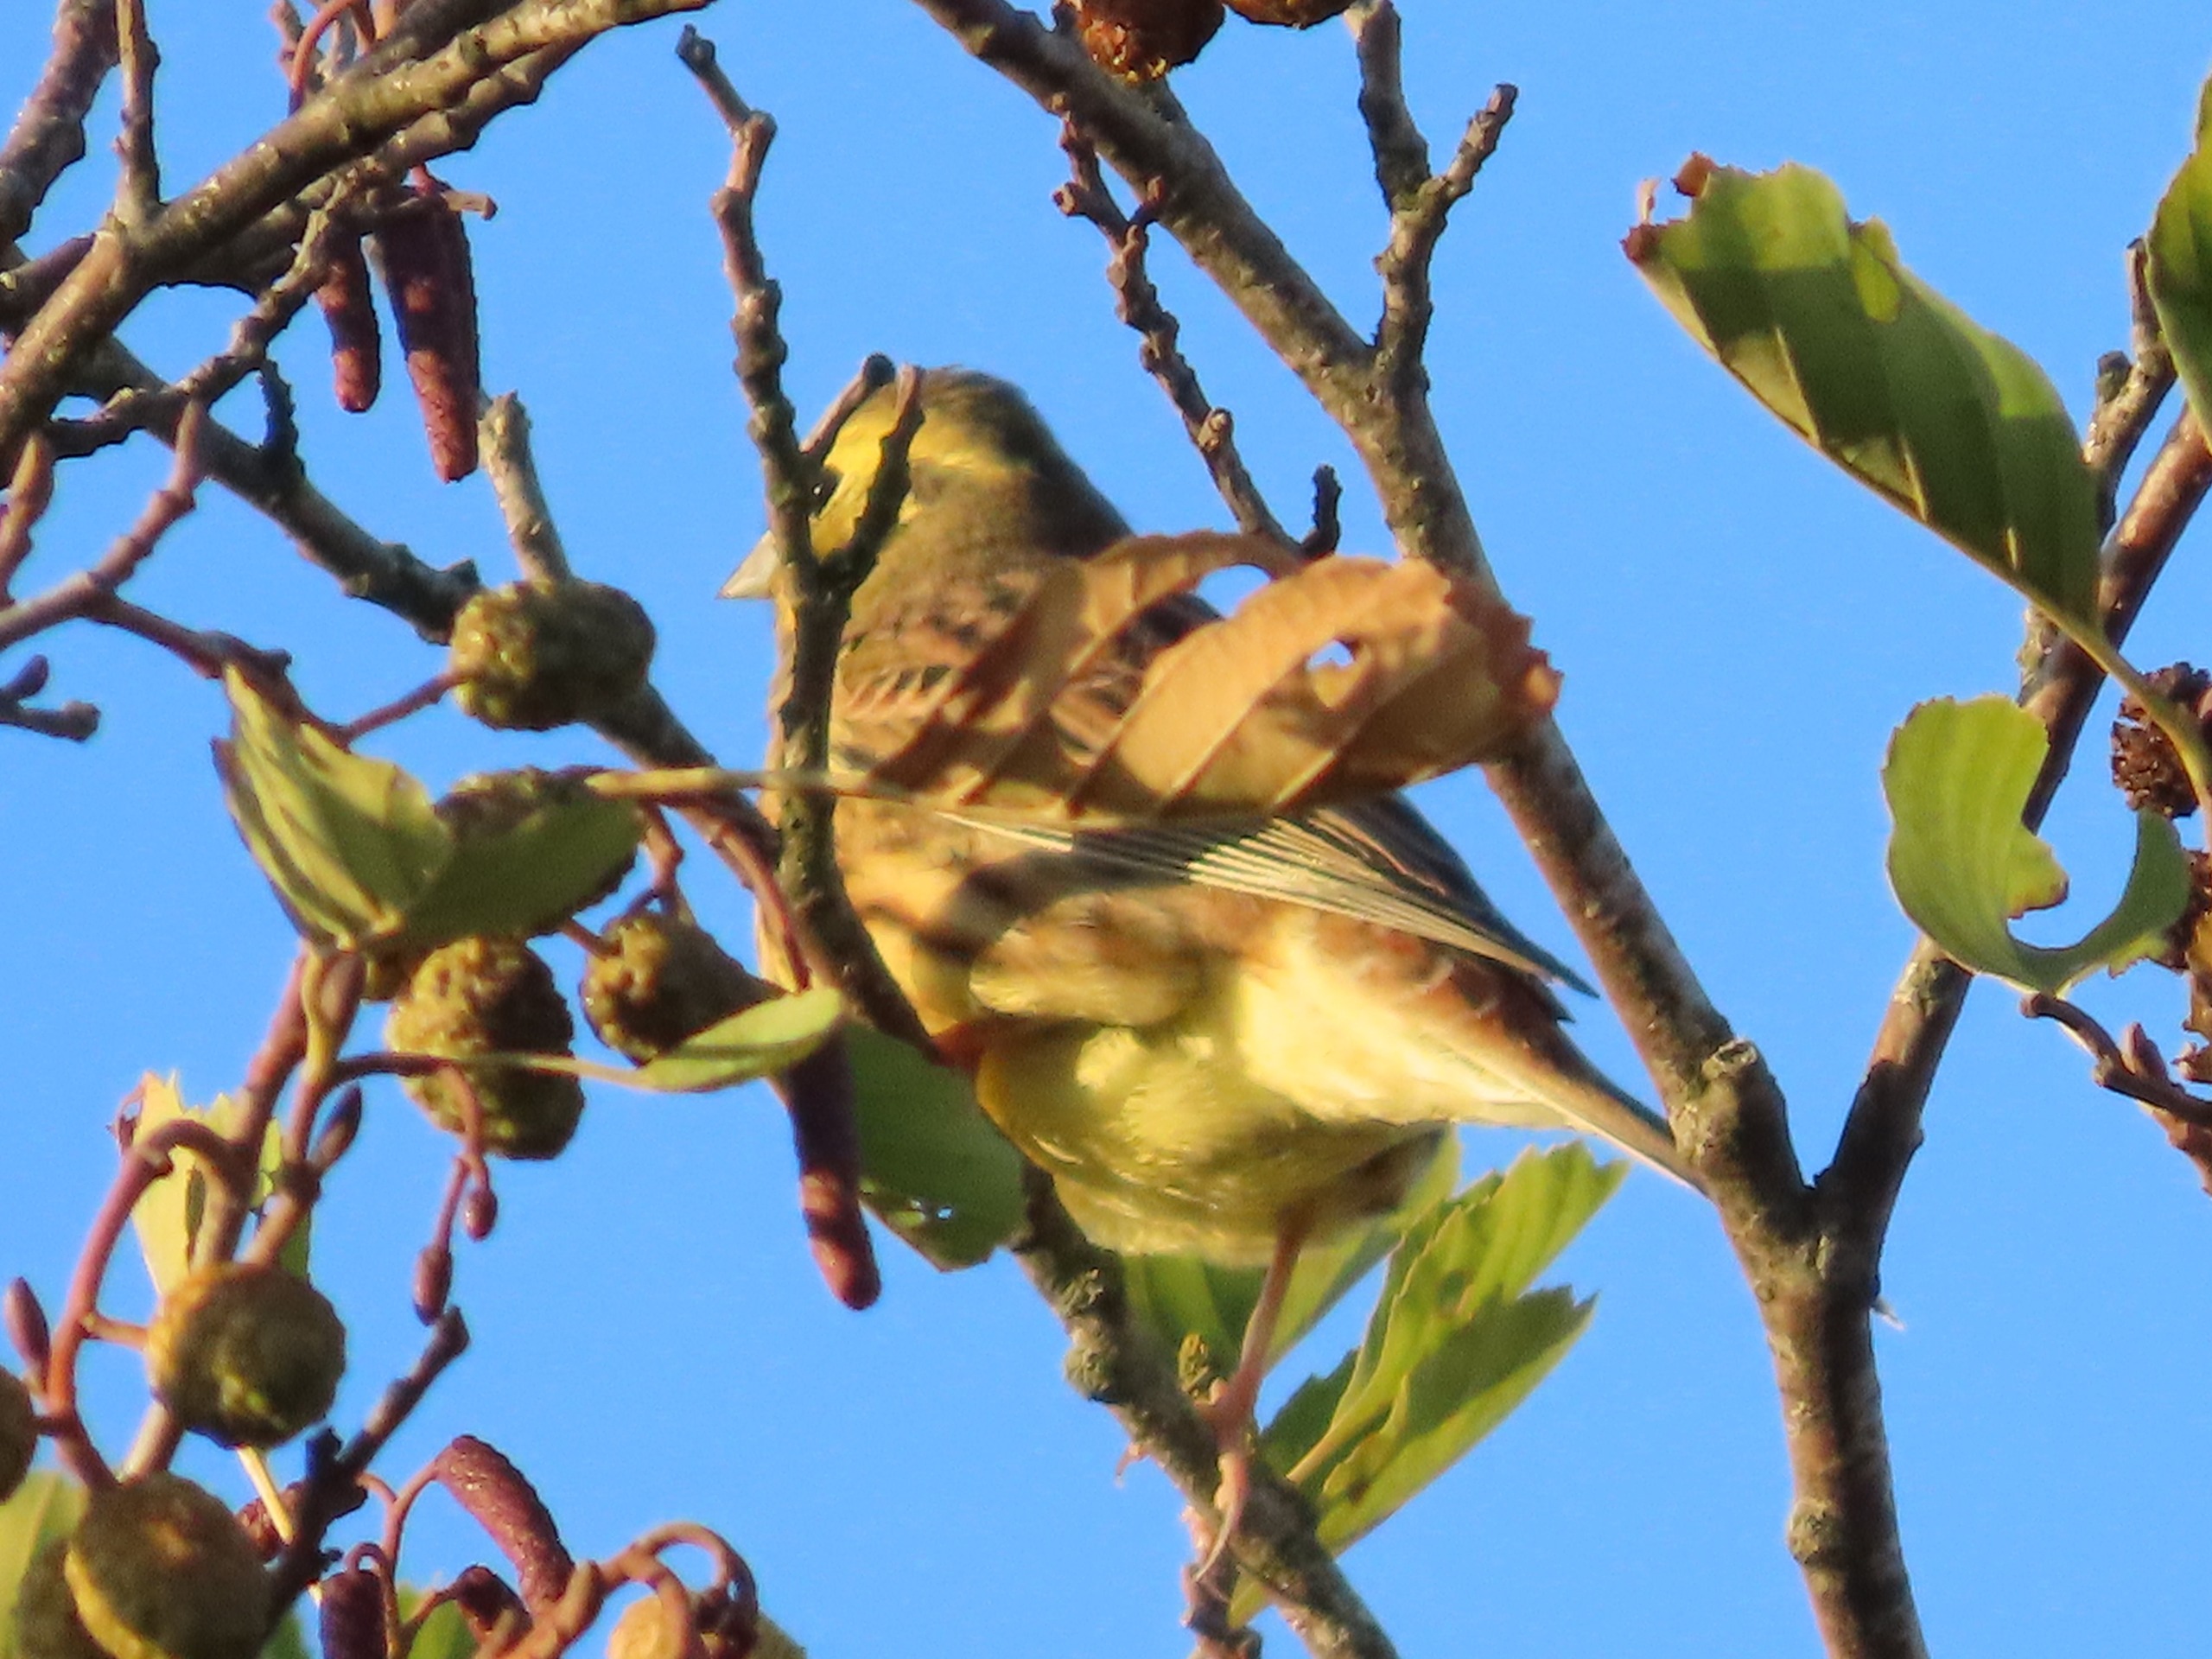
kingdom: Animalia
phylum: Chordata
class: Aves
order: Passeriformes
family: Emberizidae
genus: Emberiza
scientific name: Emberiza citrinella
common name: Gulspurv
